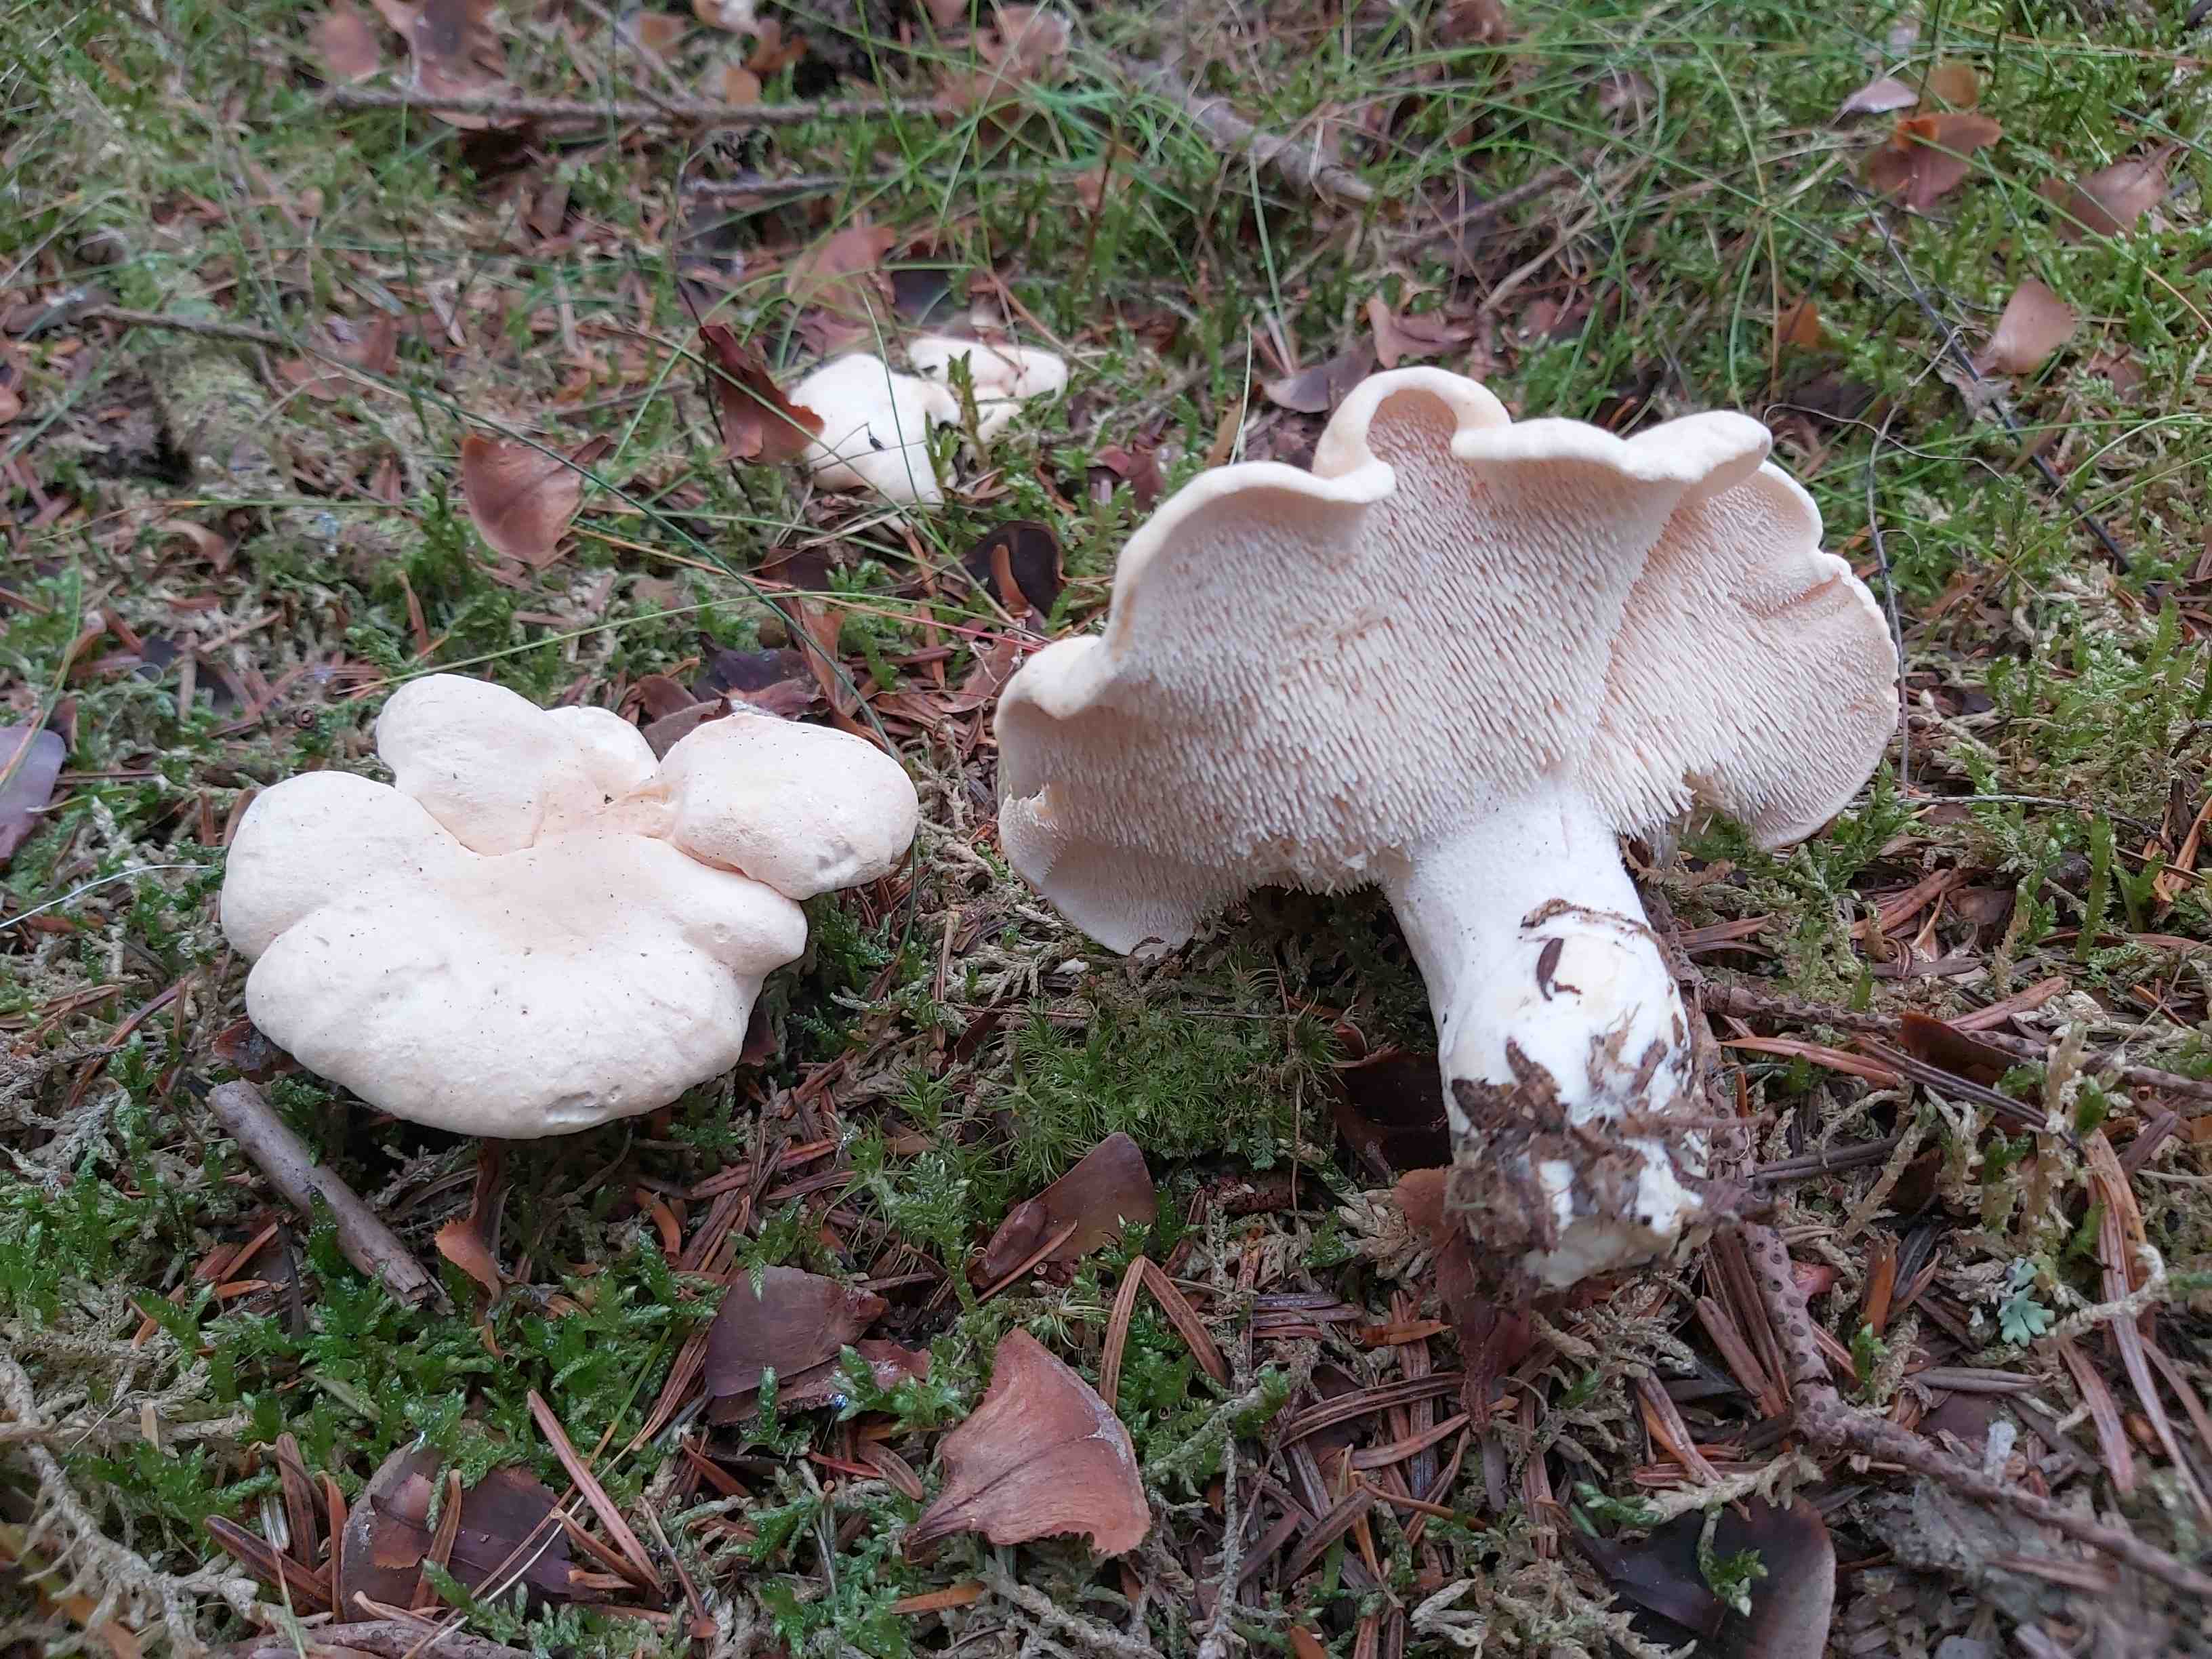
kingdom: Fungi
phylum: Basidiomycota
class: Agaricomycetes
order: Cantharellales
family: Hydnaceae
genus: Hydnum
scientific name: Hydnum repandum
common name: almindelig pigsvamp
